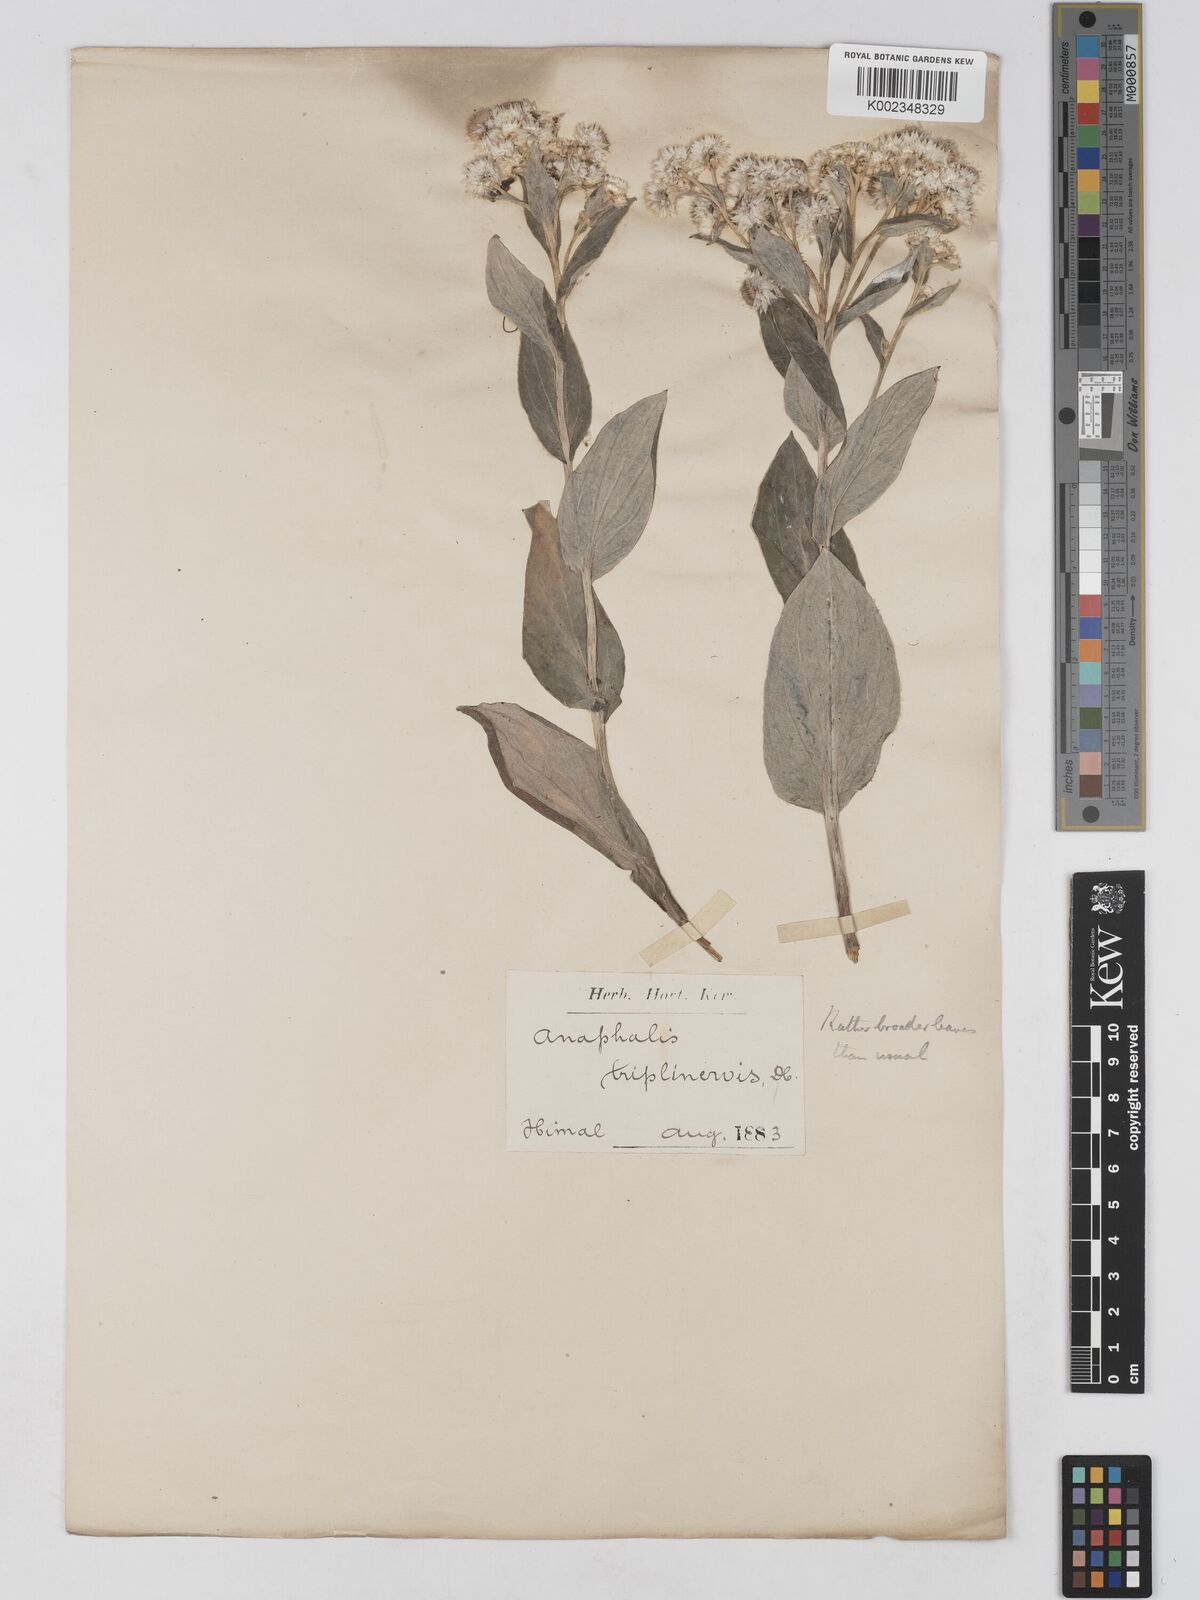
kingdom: Plantae
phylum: Tracheophyta
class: Magnoliopsida
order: Asterales
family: Asteraceae
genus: Anaphalis
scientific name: Anaphalis triplinervis
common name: Pearly everlasting
